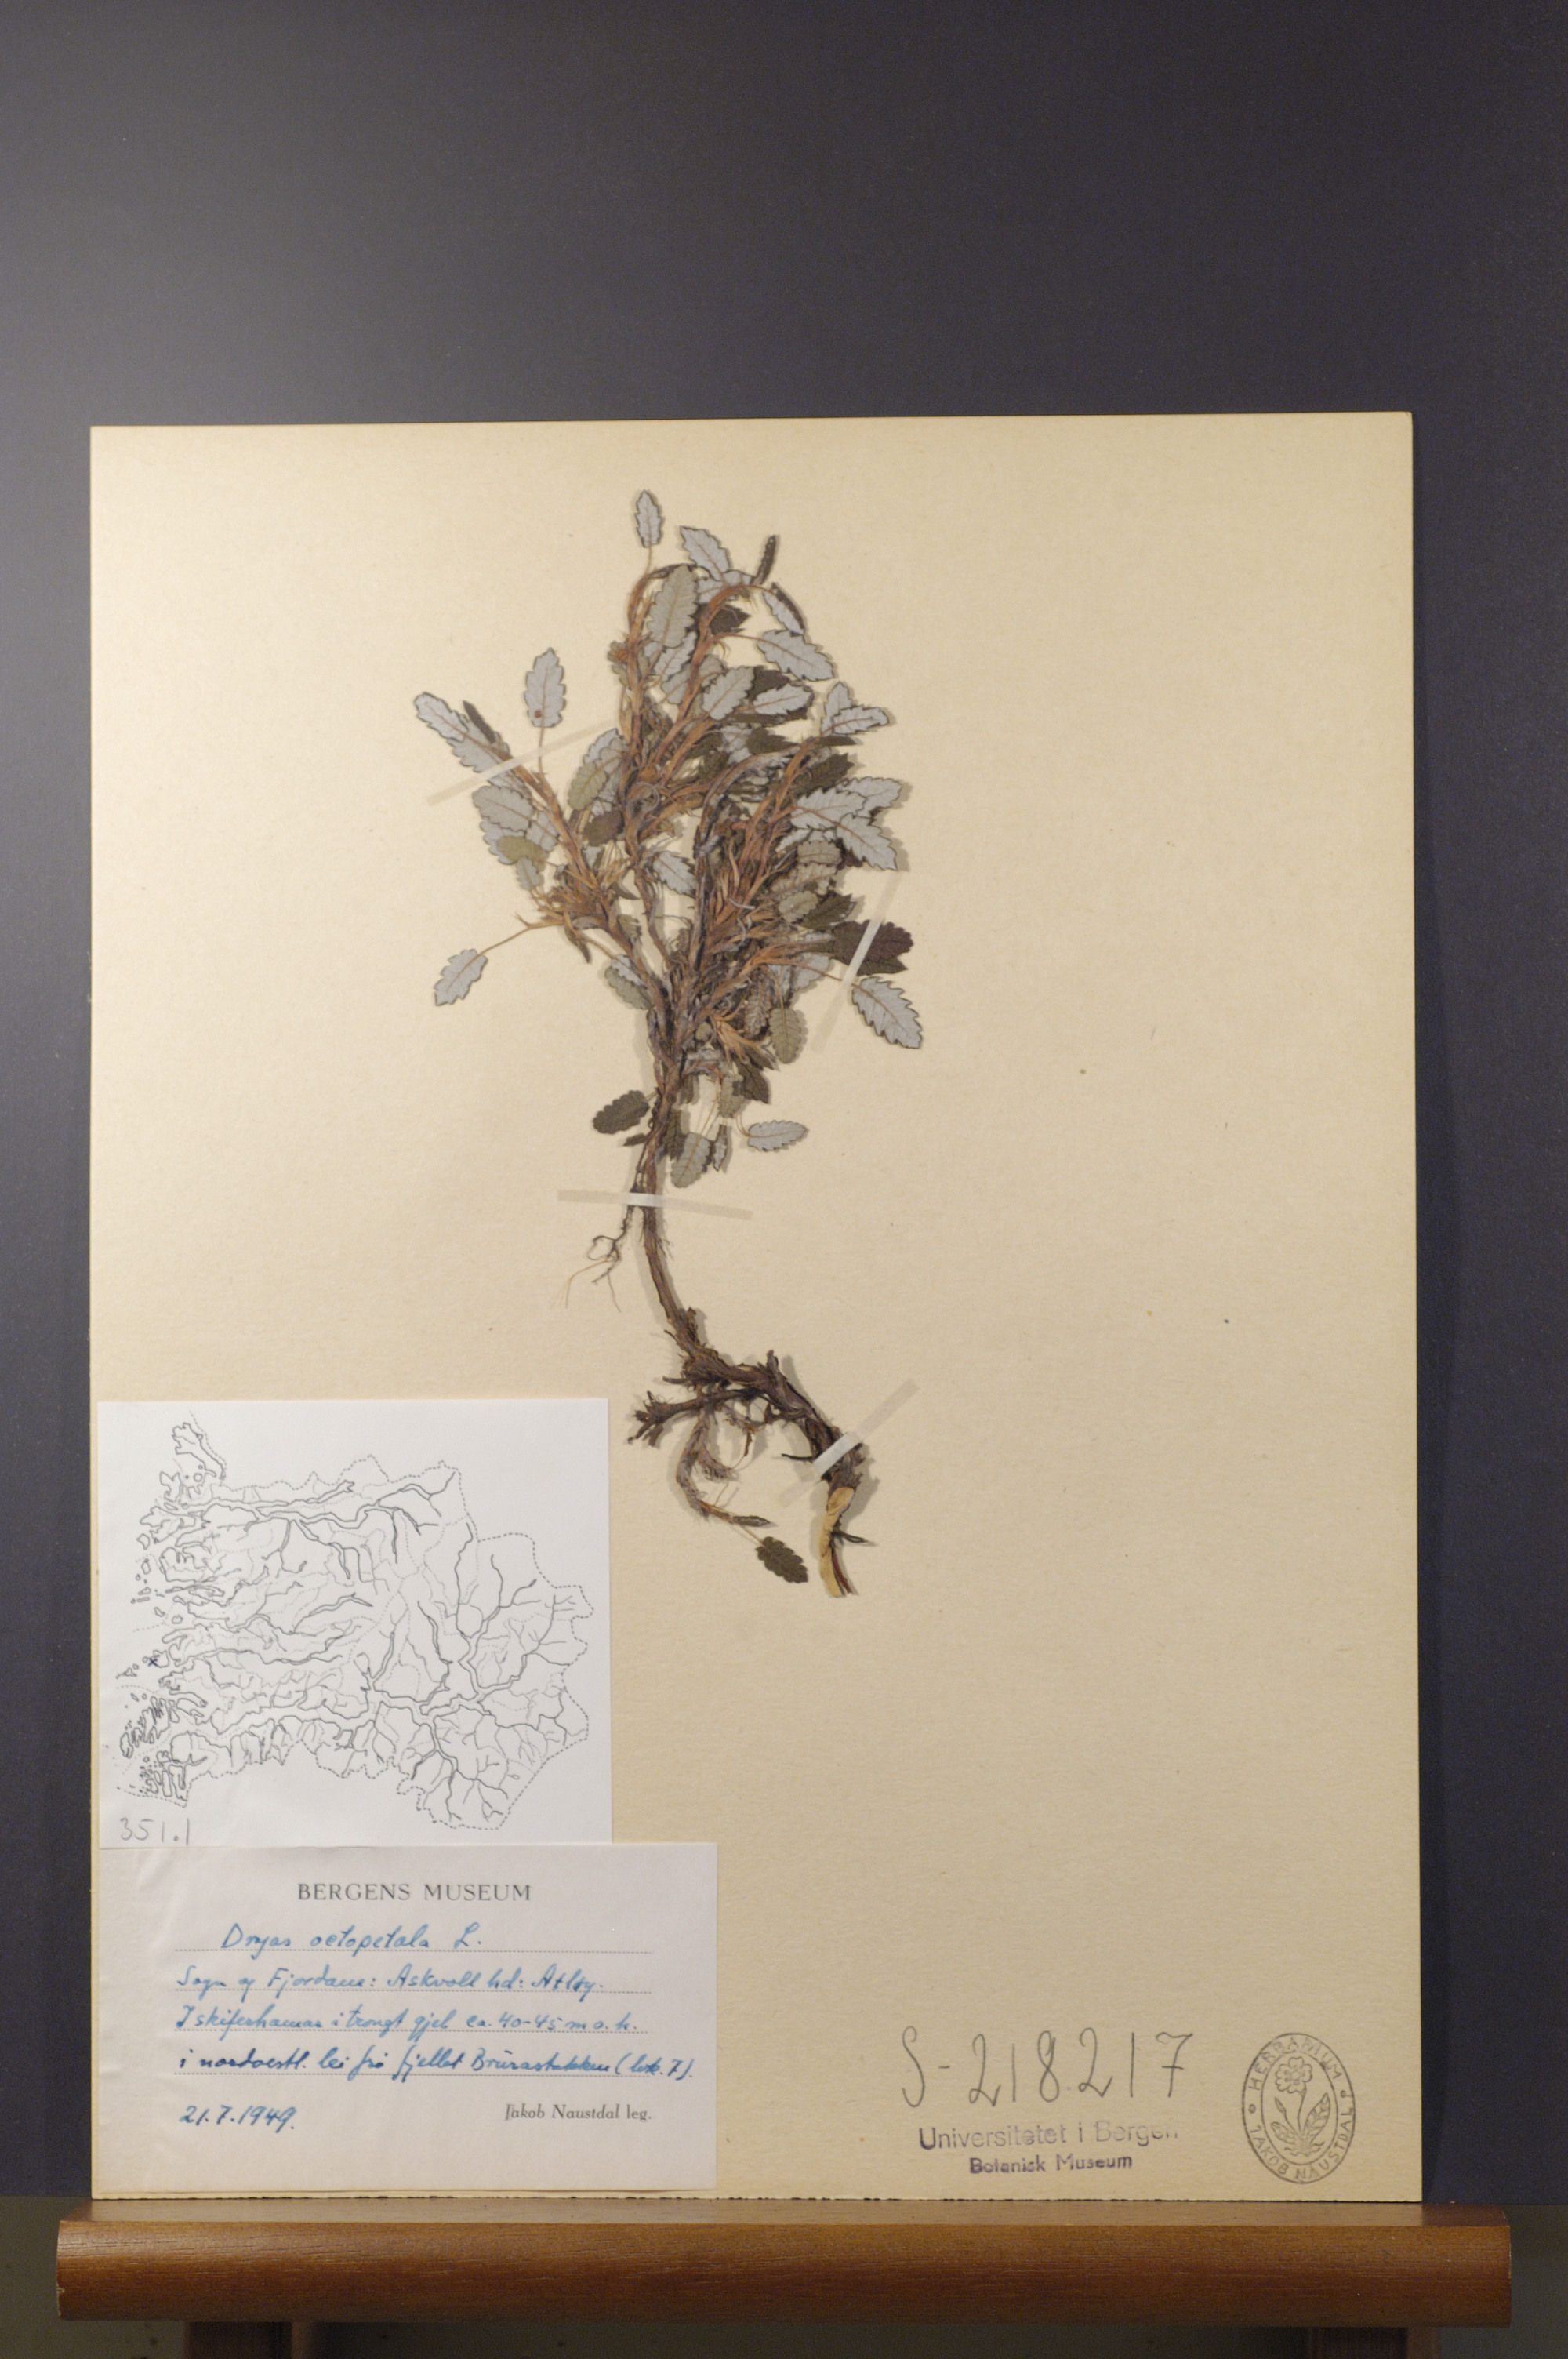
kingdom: Plantae
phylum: Tracheophyta
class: Magnoliopsida
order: Rosales
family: Rosaceae
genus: Dryas
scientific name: Dryas octopetala
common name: Eight-petal mountain-avens
